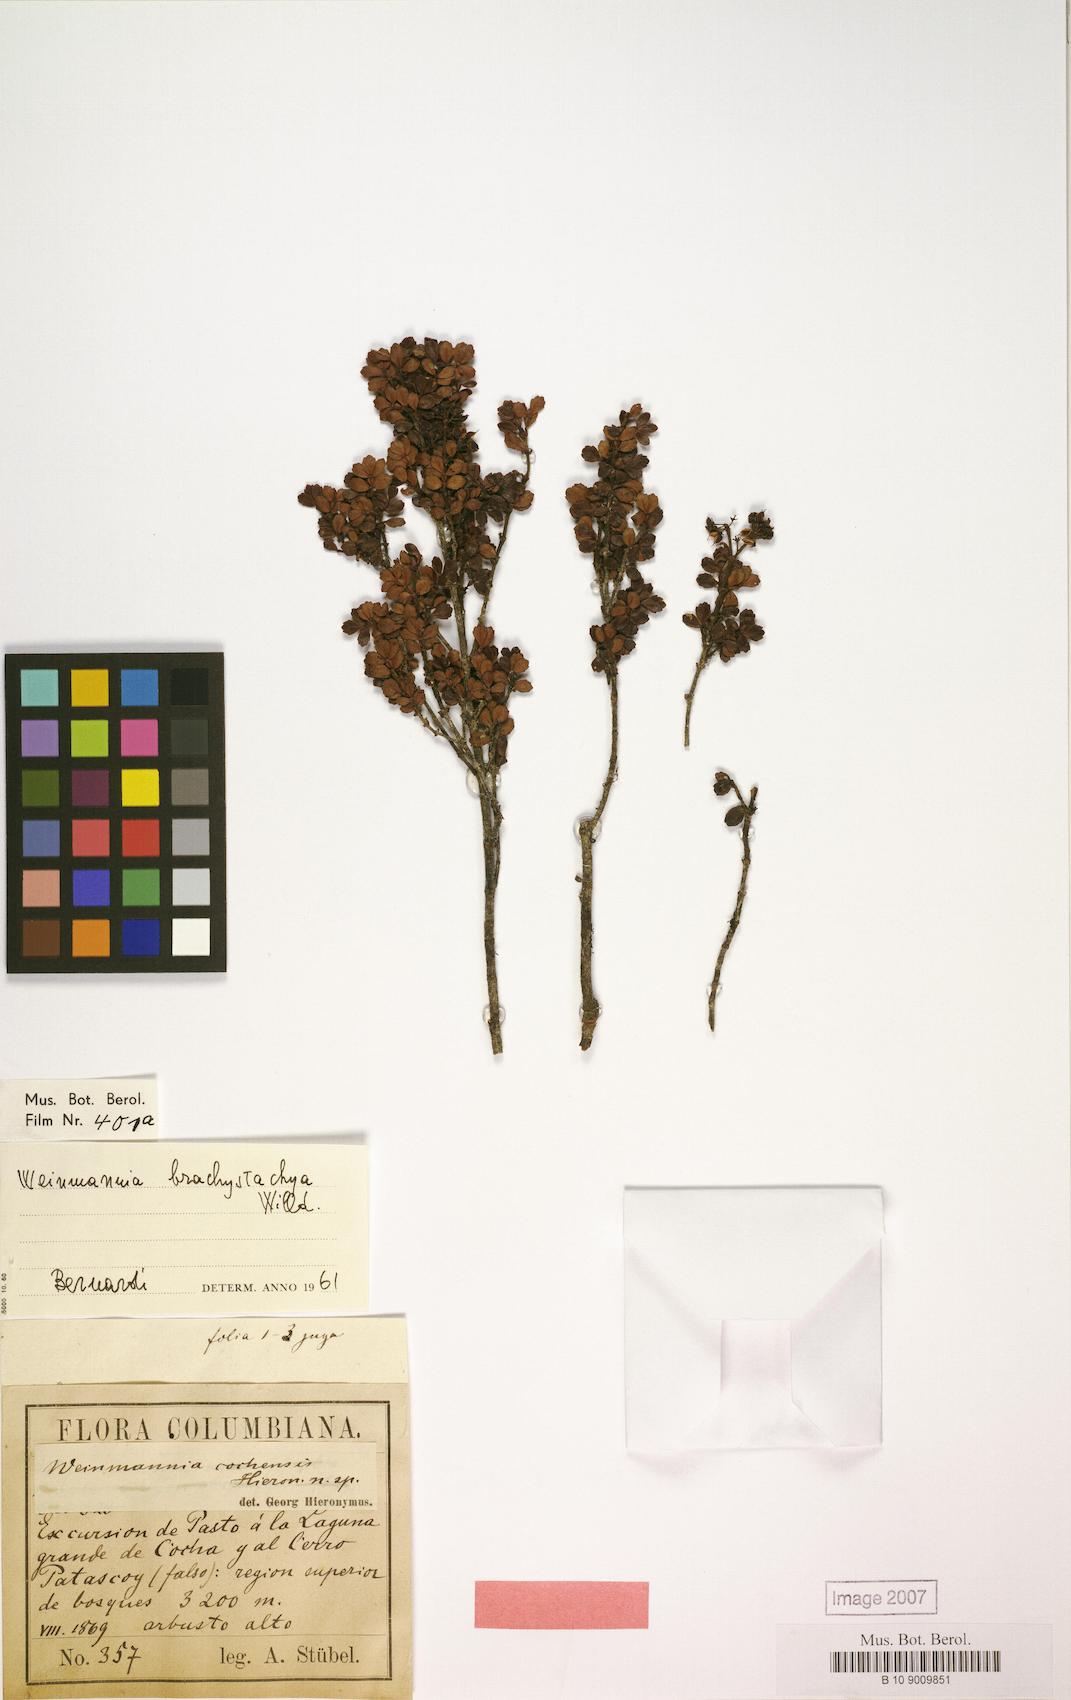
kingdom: Plantae
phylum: Tracheophyta
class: Magnoliopsida
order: Oxalidales
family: Cunoniaceae
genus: Weinmannia
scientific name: Weinmannia cochensis
